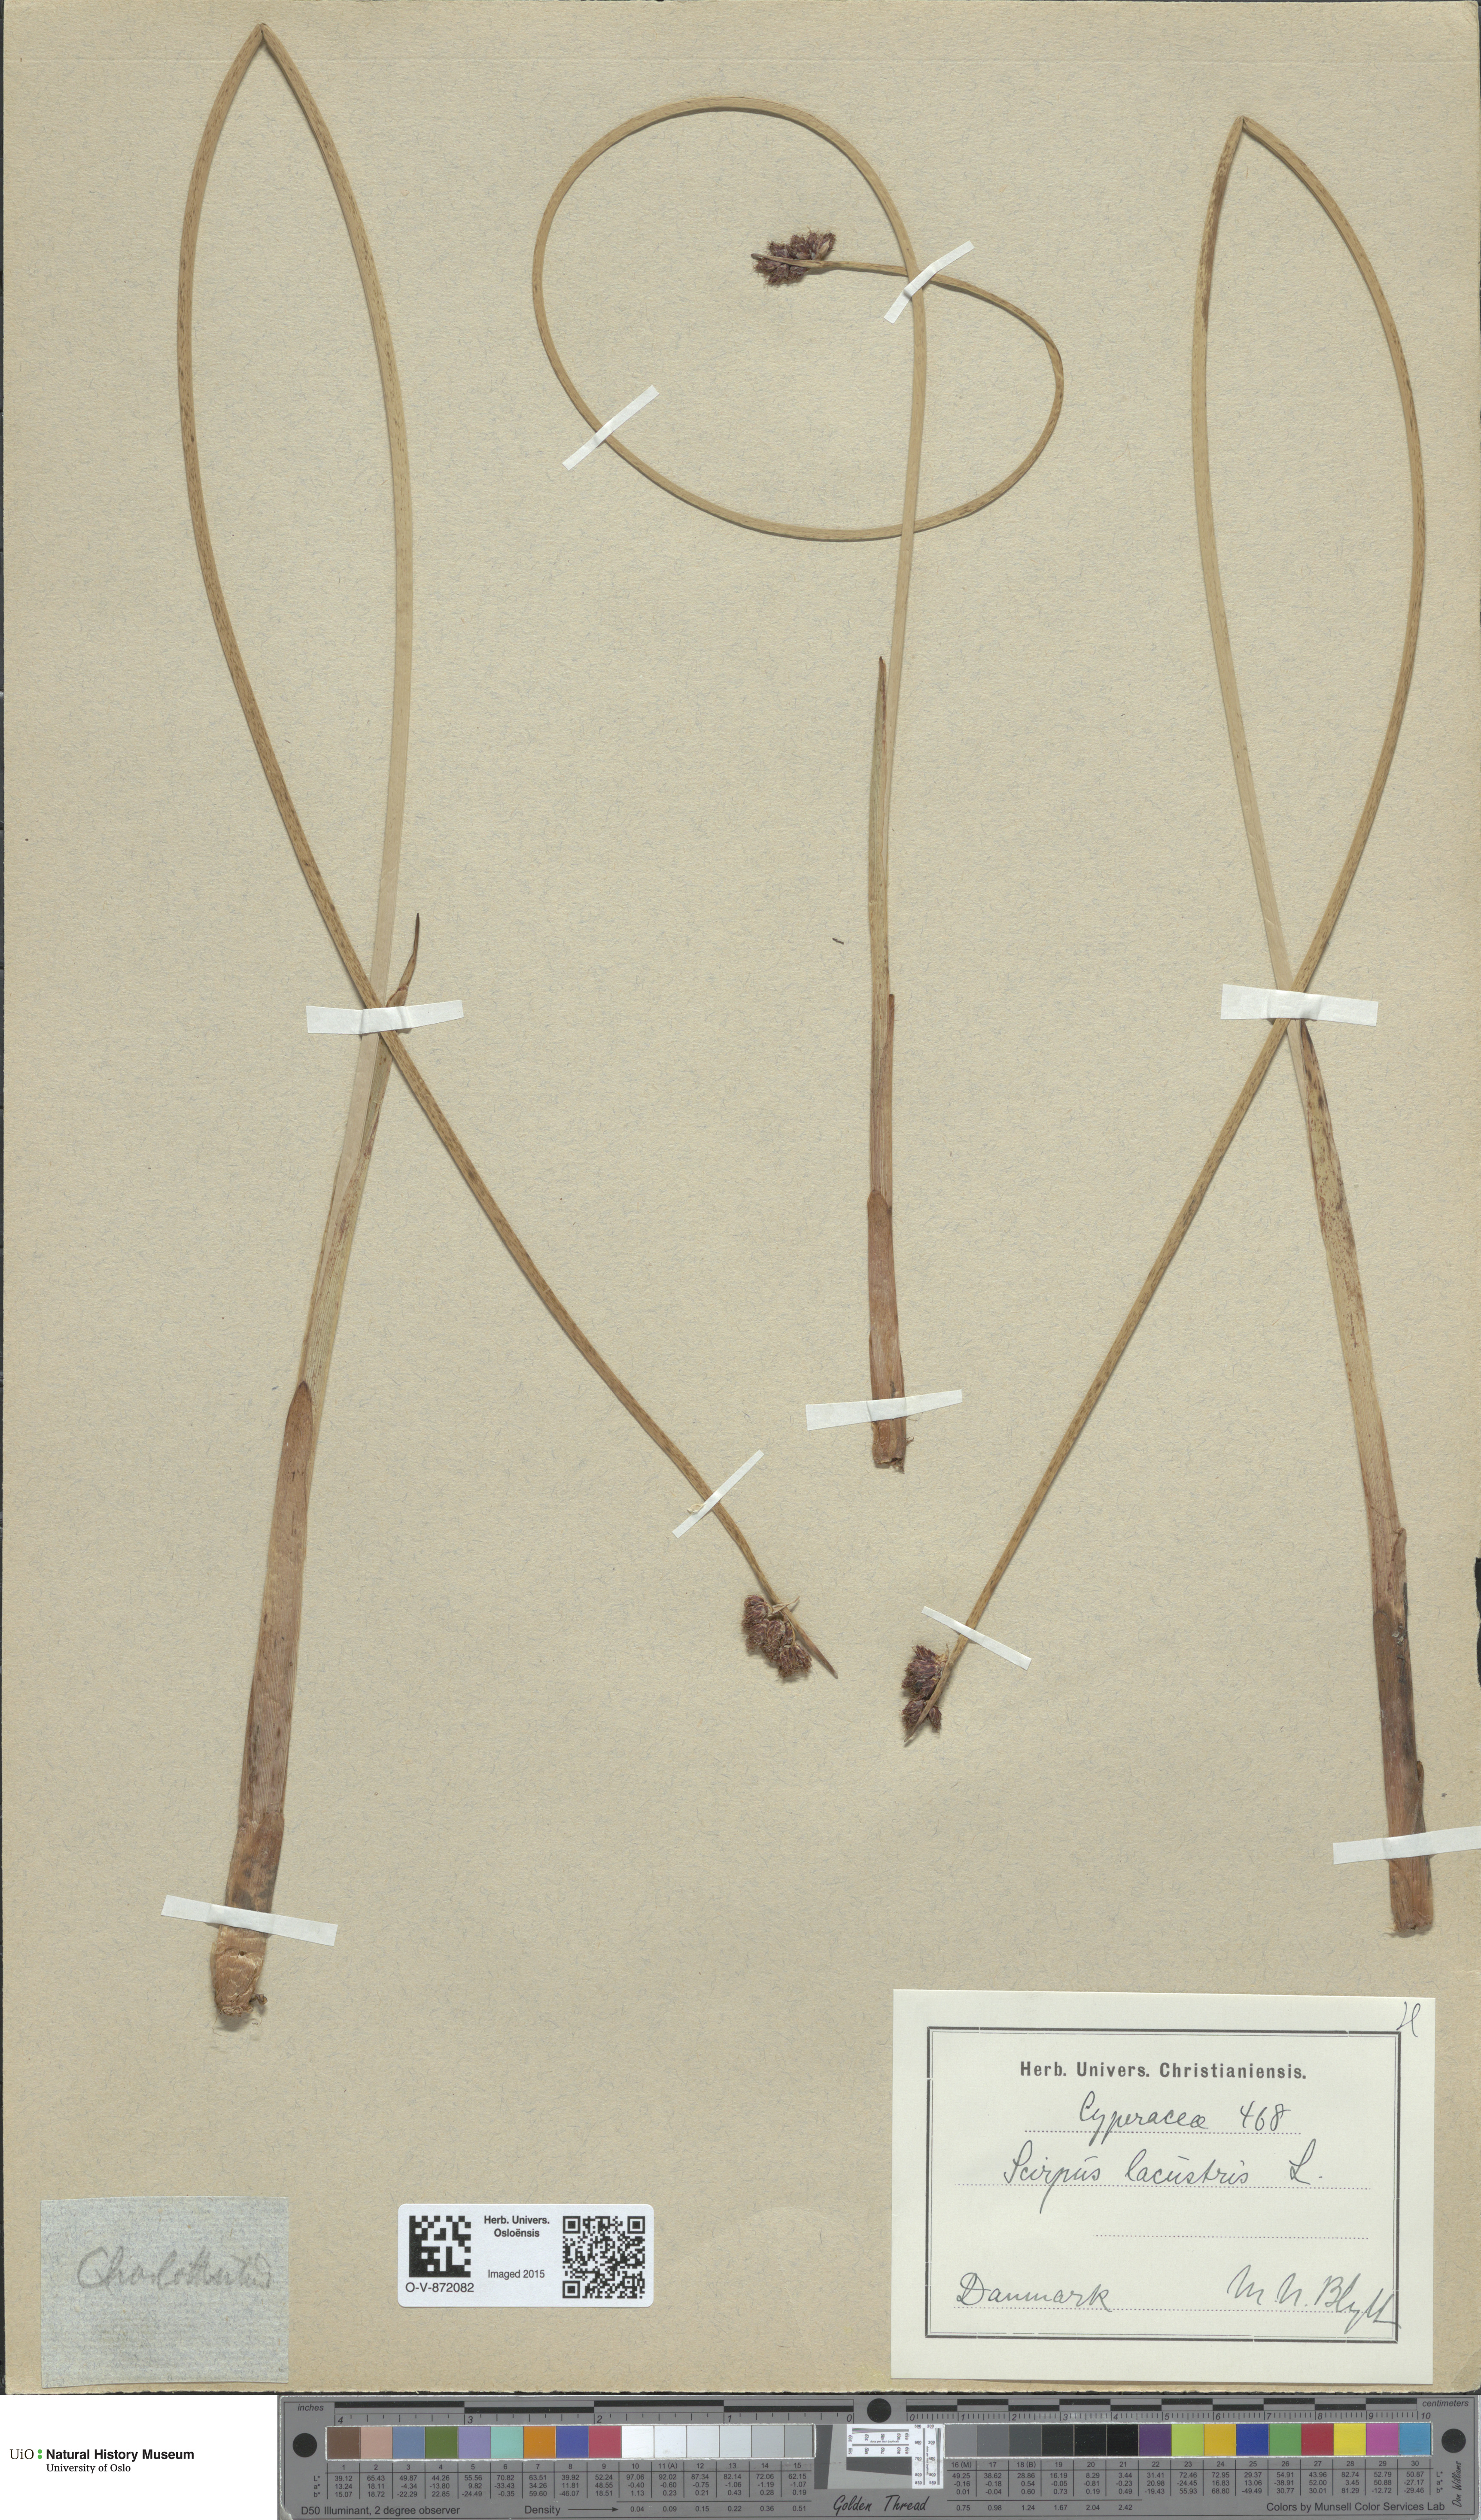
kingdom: Plantae
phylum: Tracheophyta
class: Liliopsida
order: Poales
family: Cyperaceae
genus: Schoenoplectus
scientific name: Schoenoplectus lacustris
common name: Common club-rush
